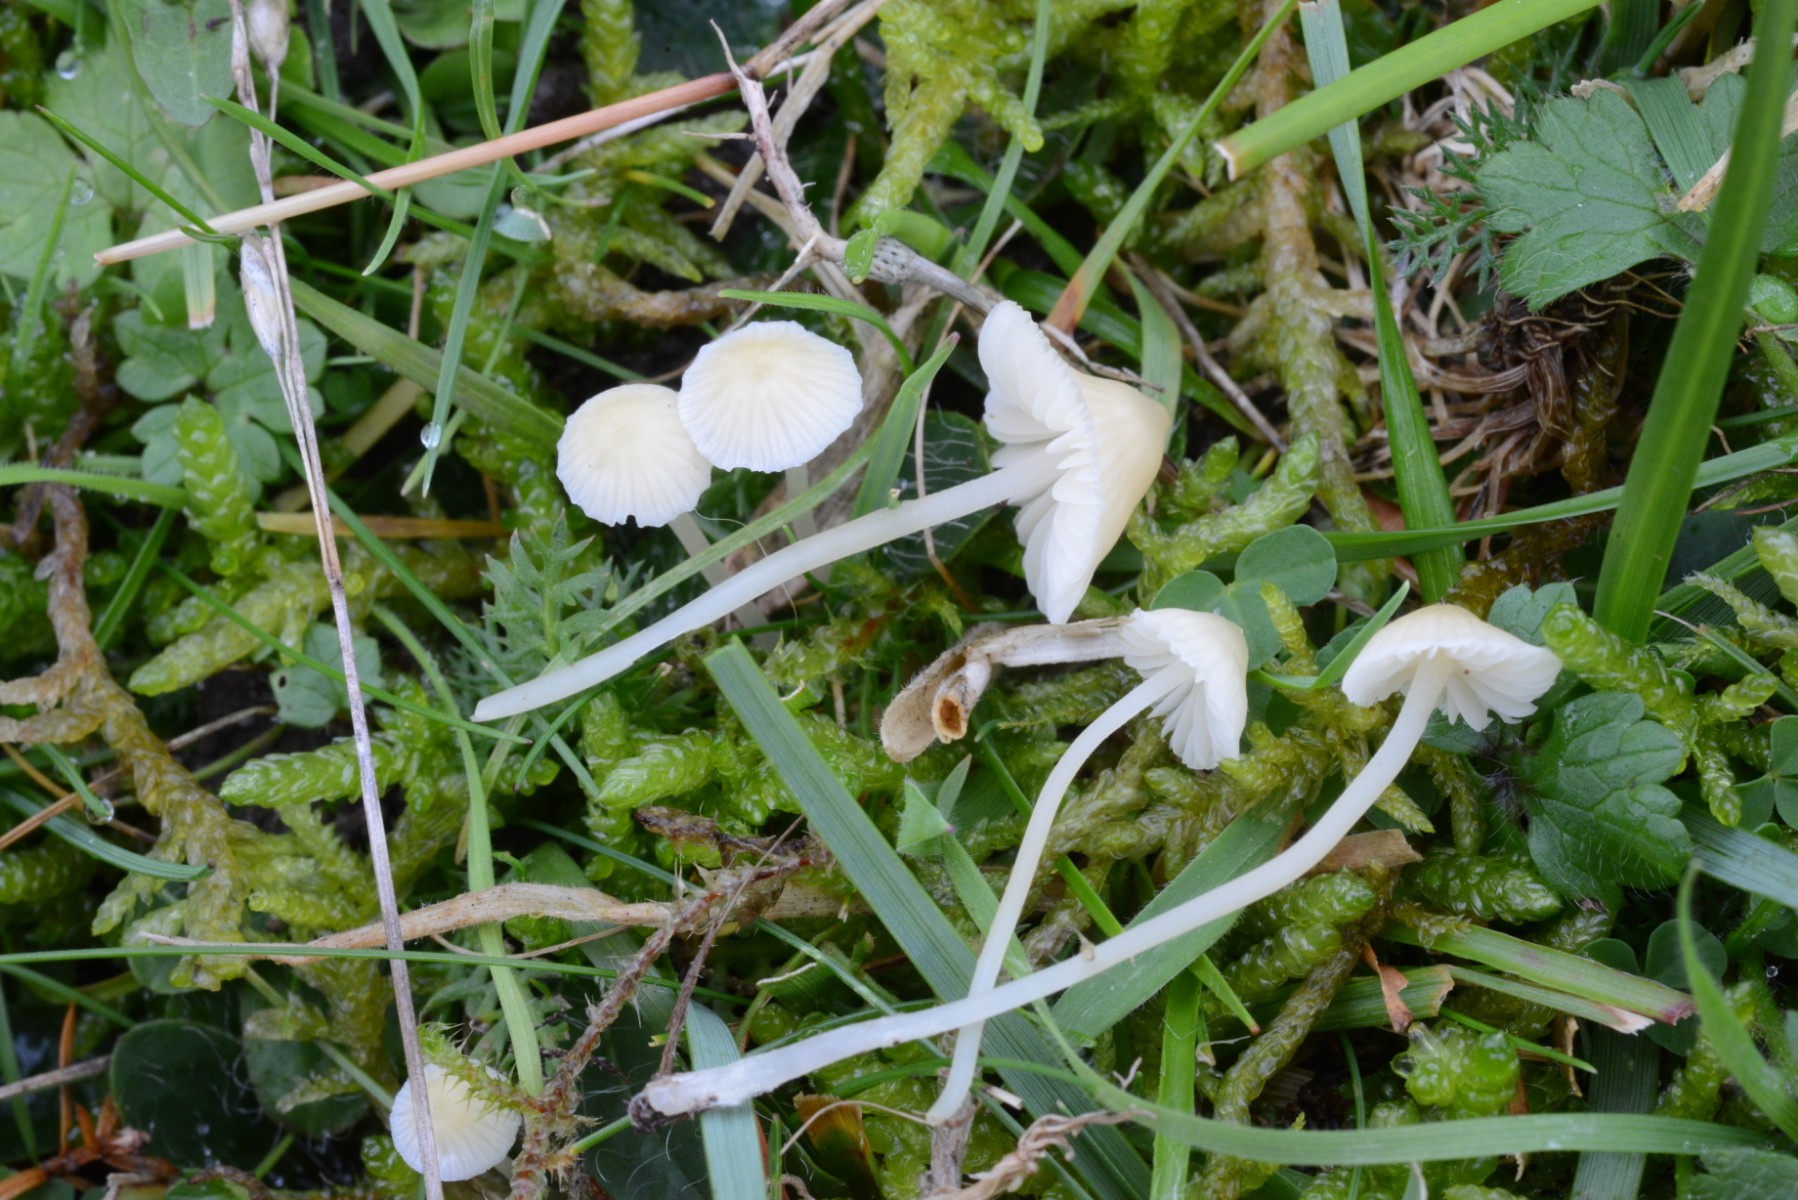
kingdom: Fungi
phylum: Basidiomycota
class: Agaricomycetes
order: Agaricales
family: Mycenaceae
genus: Atheniella
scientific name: Atheniella flavoalba
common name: gulhvid huesvamp
